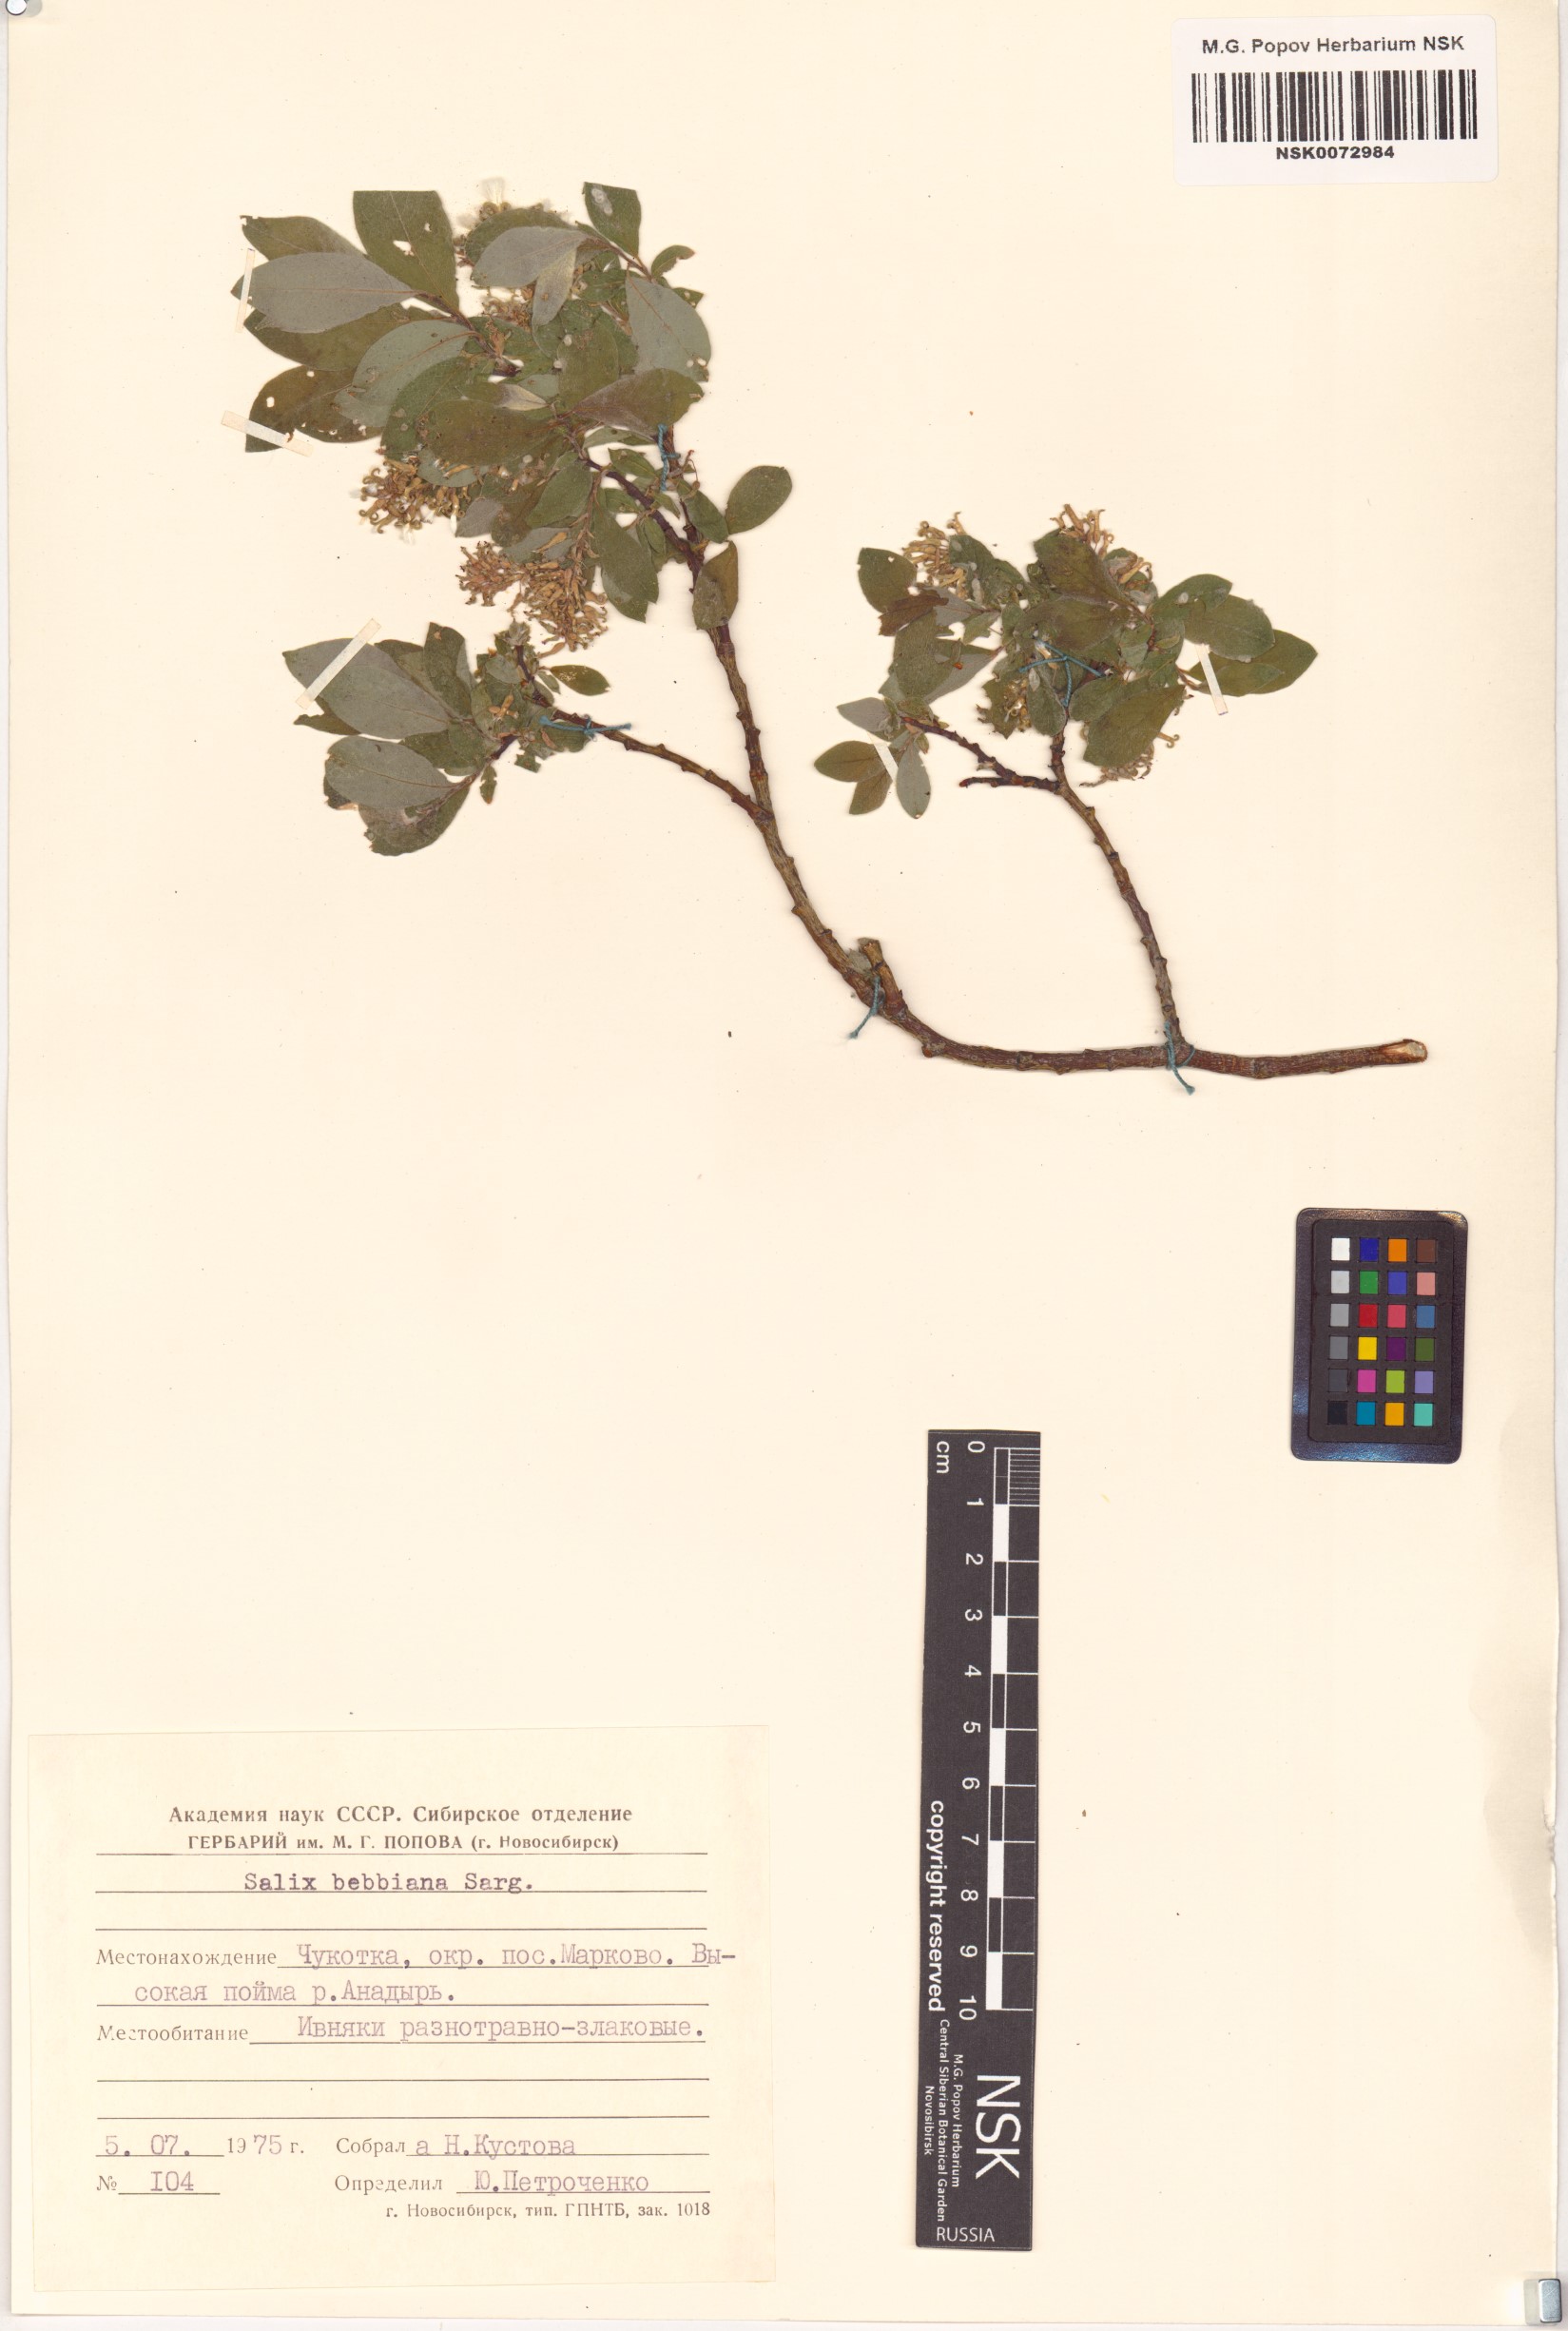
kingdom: Plantae
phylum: Tracheophyta
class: Magnoliopsida
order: Malpighiales
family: Salicaceae
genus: Salix
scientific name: Salix bebbiana
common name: Bebb's willow
